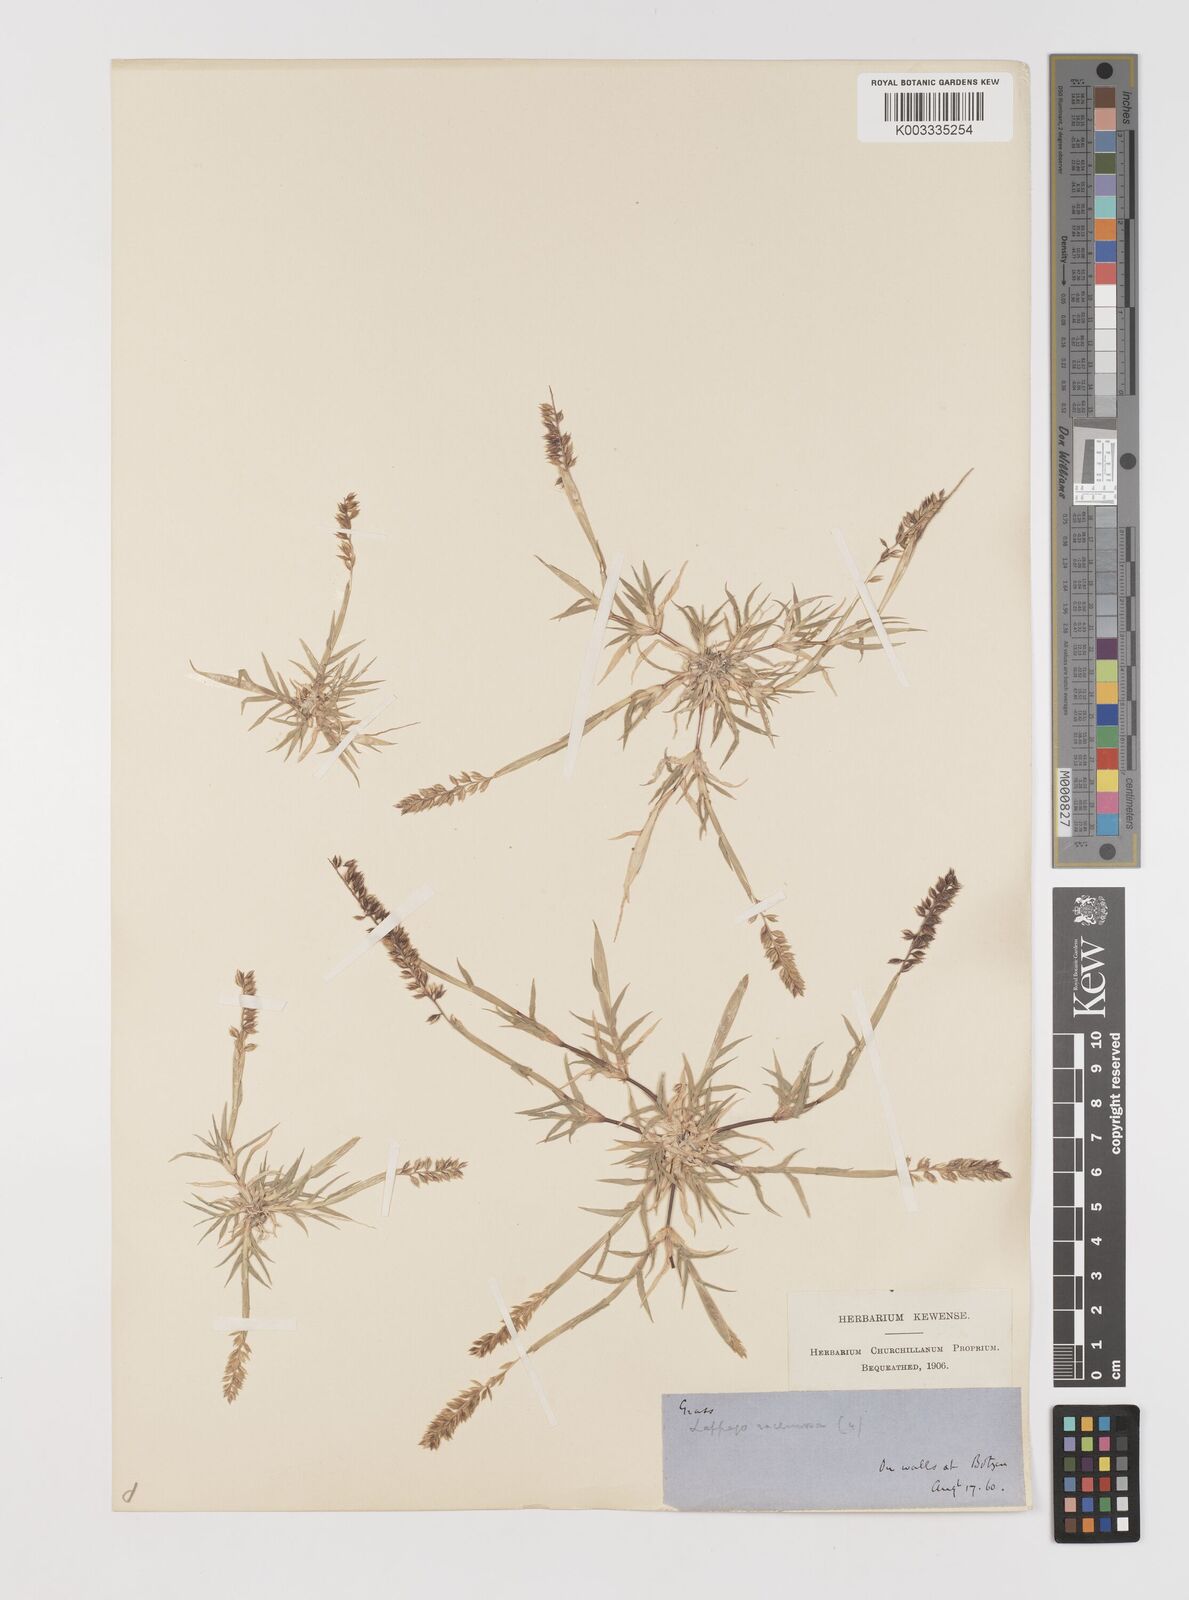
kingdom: Plantae
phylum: Tracheophyta
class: Liliopsida
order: Poales
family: Poaceae
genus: Tragus
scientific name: Tragus racemosus
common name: European bur-grass
